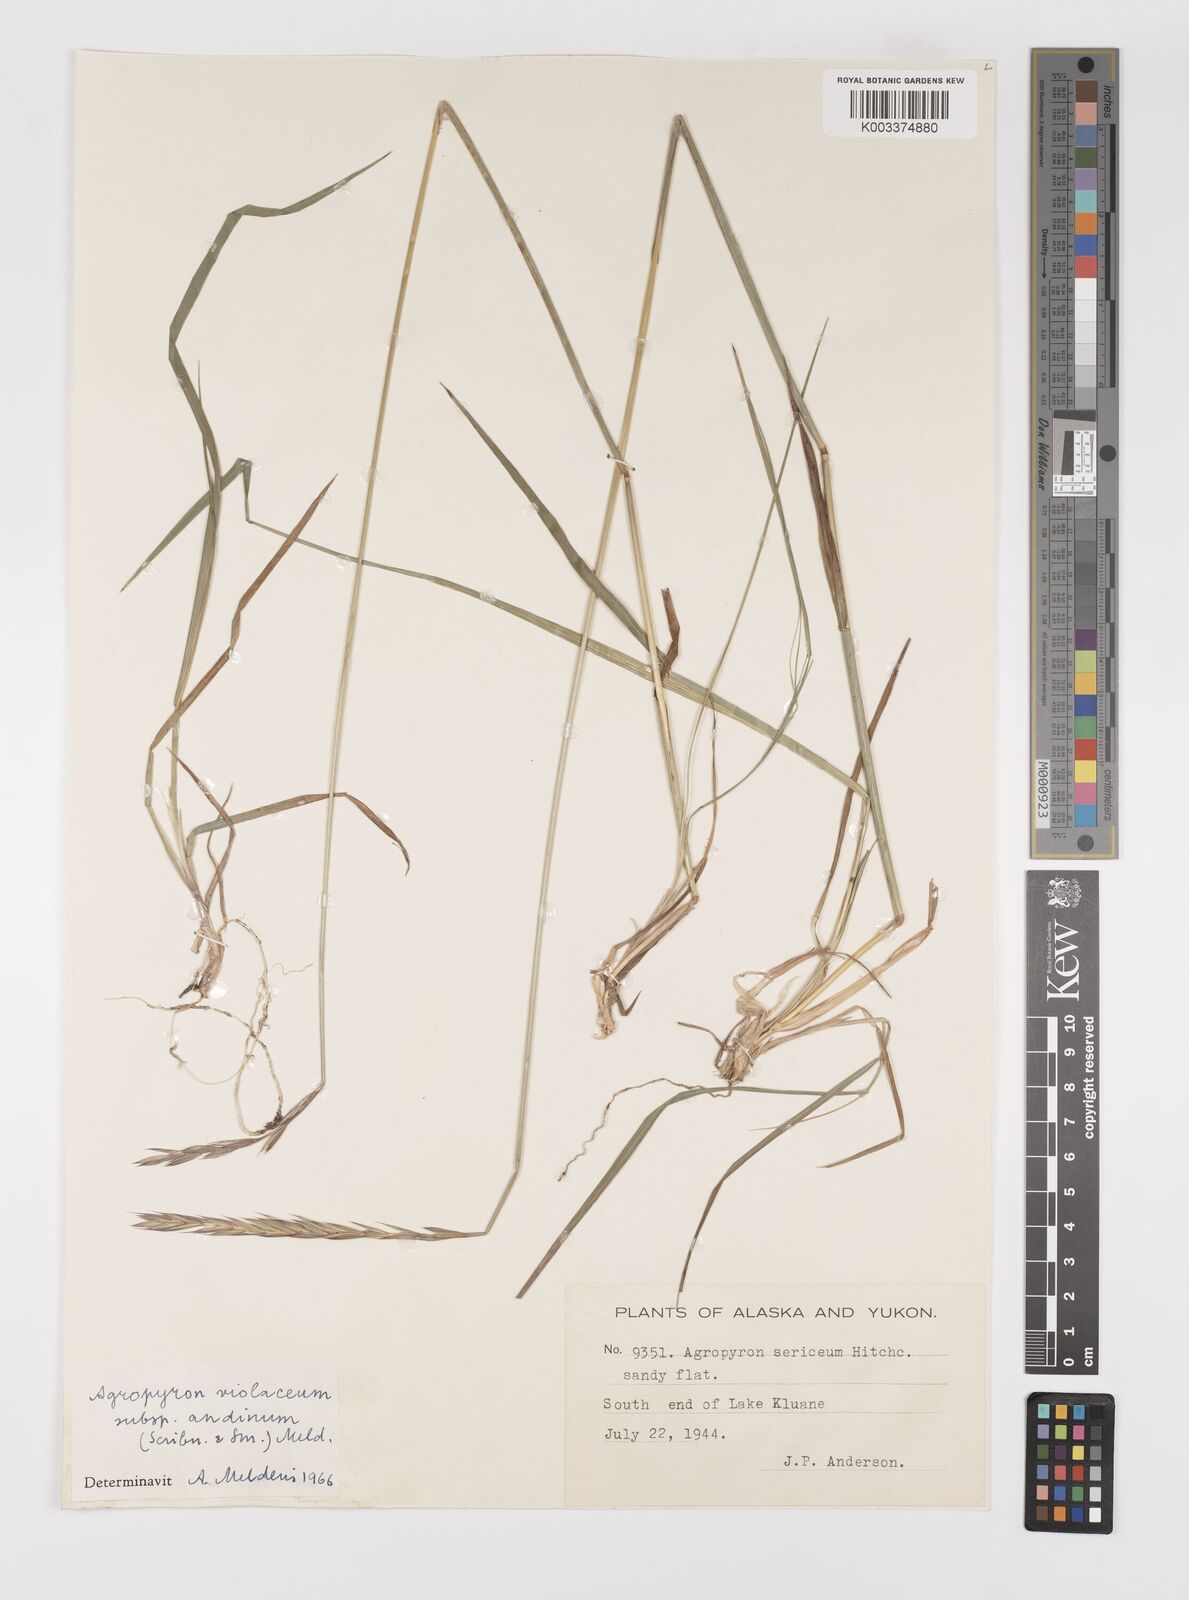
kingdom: Plantae
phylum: Tracheophyta
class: Liliopsida
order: Poales
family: Poaceae
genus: Elymus
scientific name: Elymus violaceus
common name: Arctic wheatgrass
